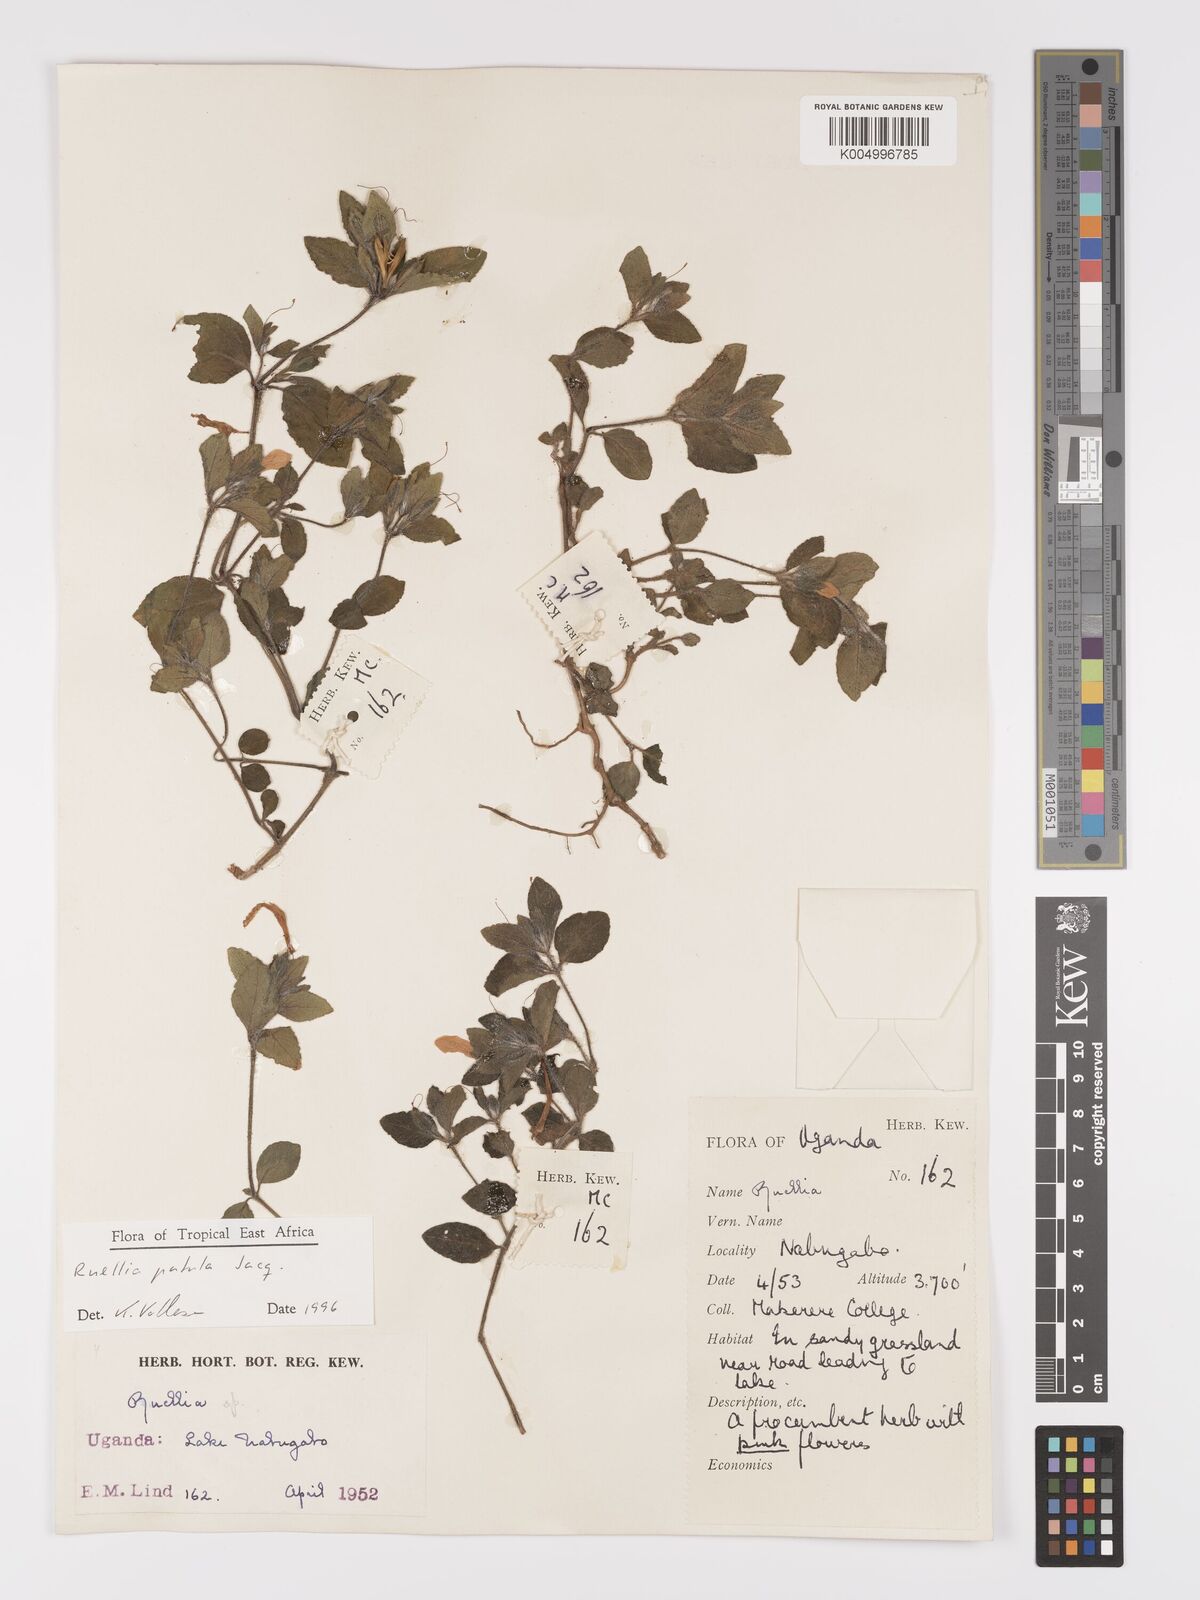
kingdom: Plantae
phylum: Tracheophyta
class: Magnoliopsida
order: Lamiales
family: Acanthaceae
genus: Ruellia
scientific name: Ruellia patula
